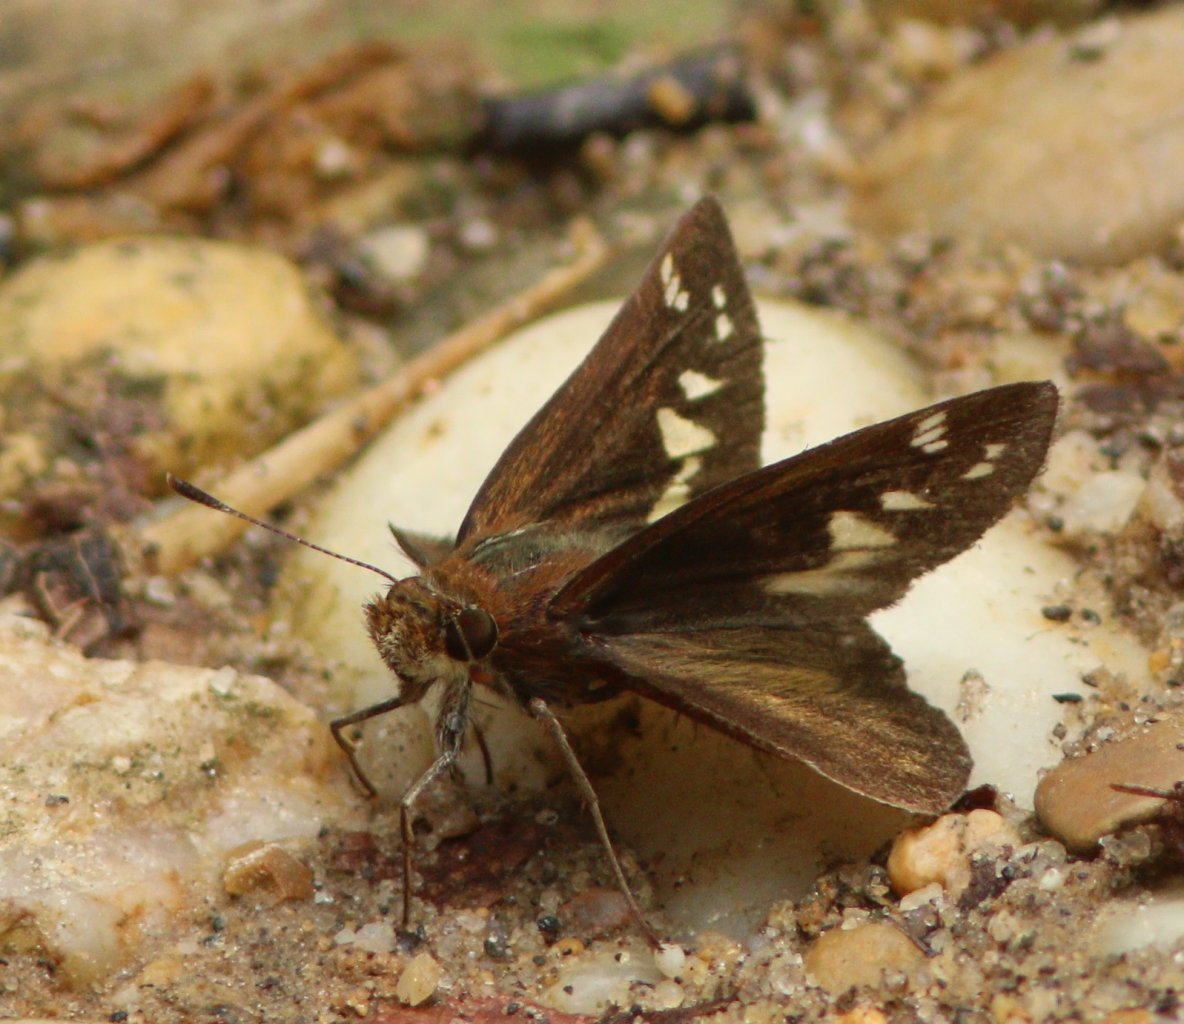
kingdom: Animalia
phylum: Arthropoda
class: Insecta
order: Lepidoptera
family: Hesperiidae
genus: Lon
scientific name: Lon zabulon
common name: Zabulon Skipper
